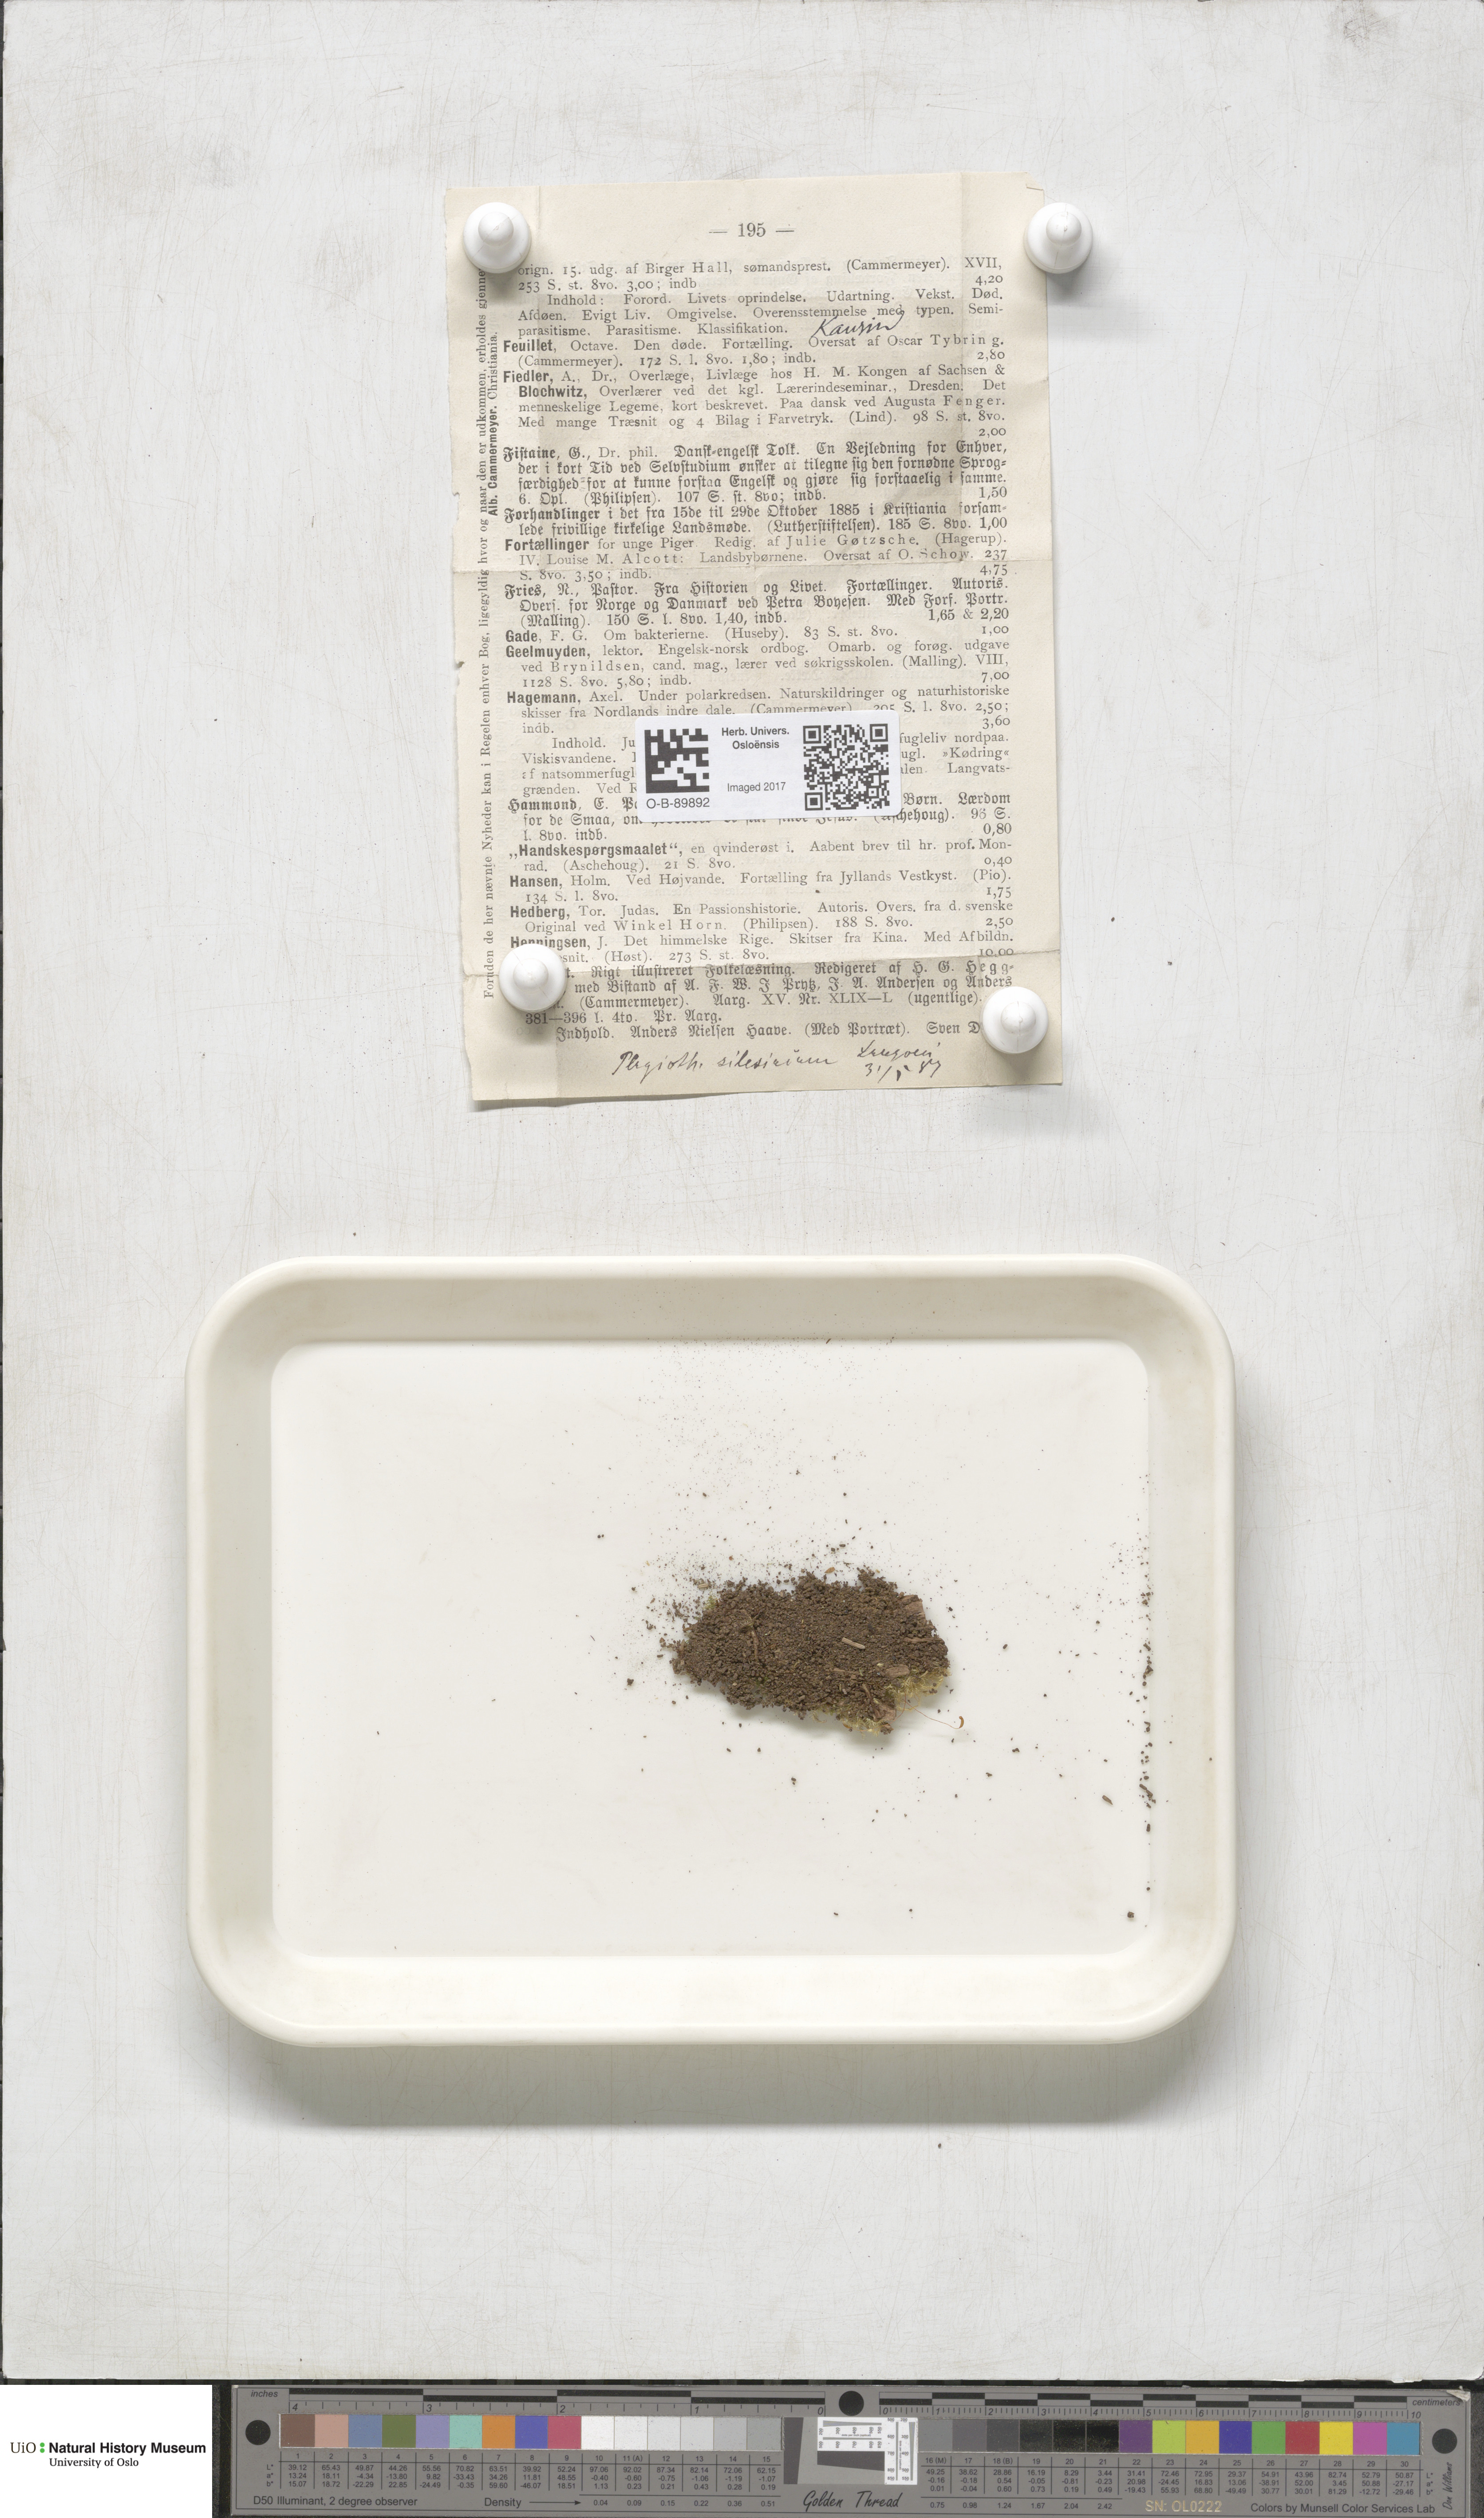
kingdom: Plantae
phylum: Bryophyta
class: Bryopsida
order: Hypnales
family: Plagiotheciaceae
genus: Herzogiella
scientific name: Herzogiella seligeri
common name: Silesian feather-moss
